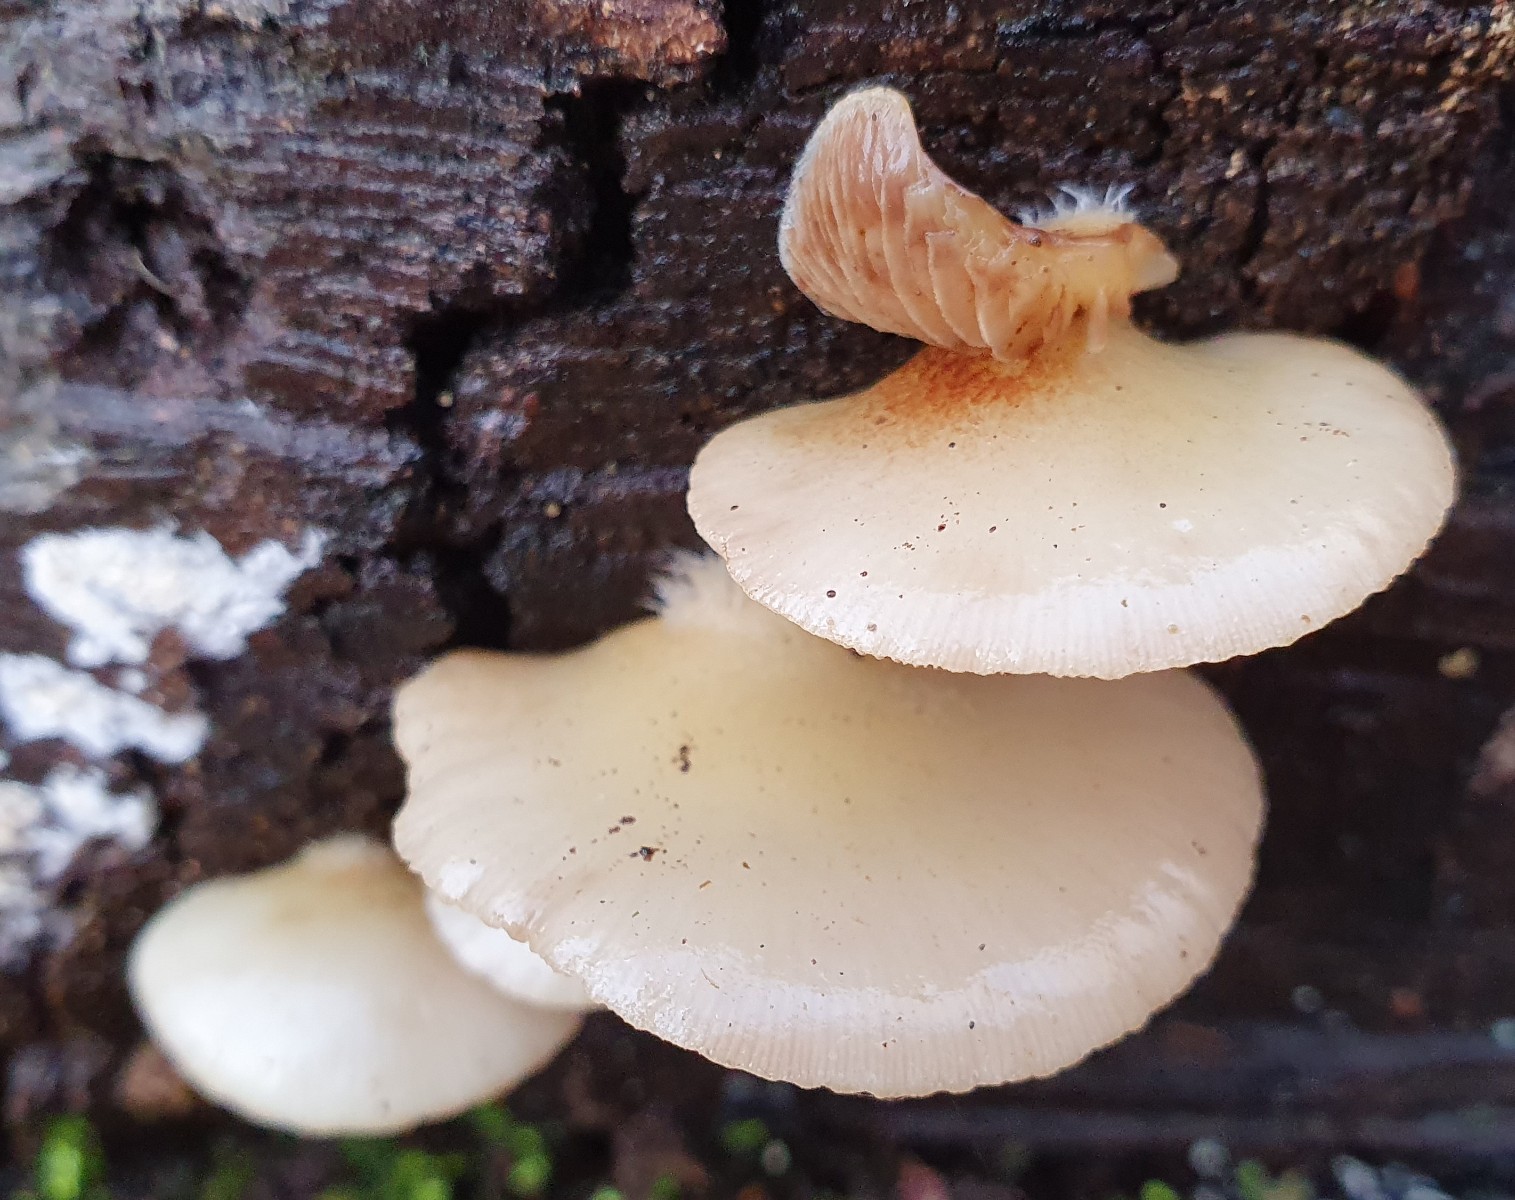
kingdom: Fungi
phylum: Basidiomycota
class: Agaricomycetes
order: Agaricales
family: Crepidotaceae
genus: Crepidotus
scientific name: Crepidotus mollis
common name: blød muslingesvamp
